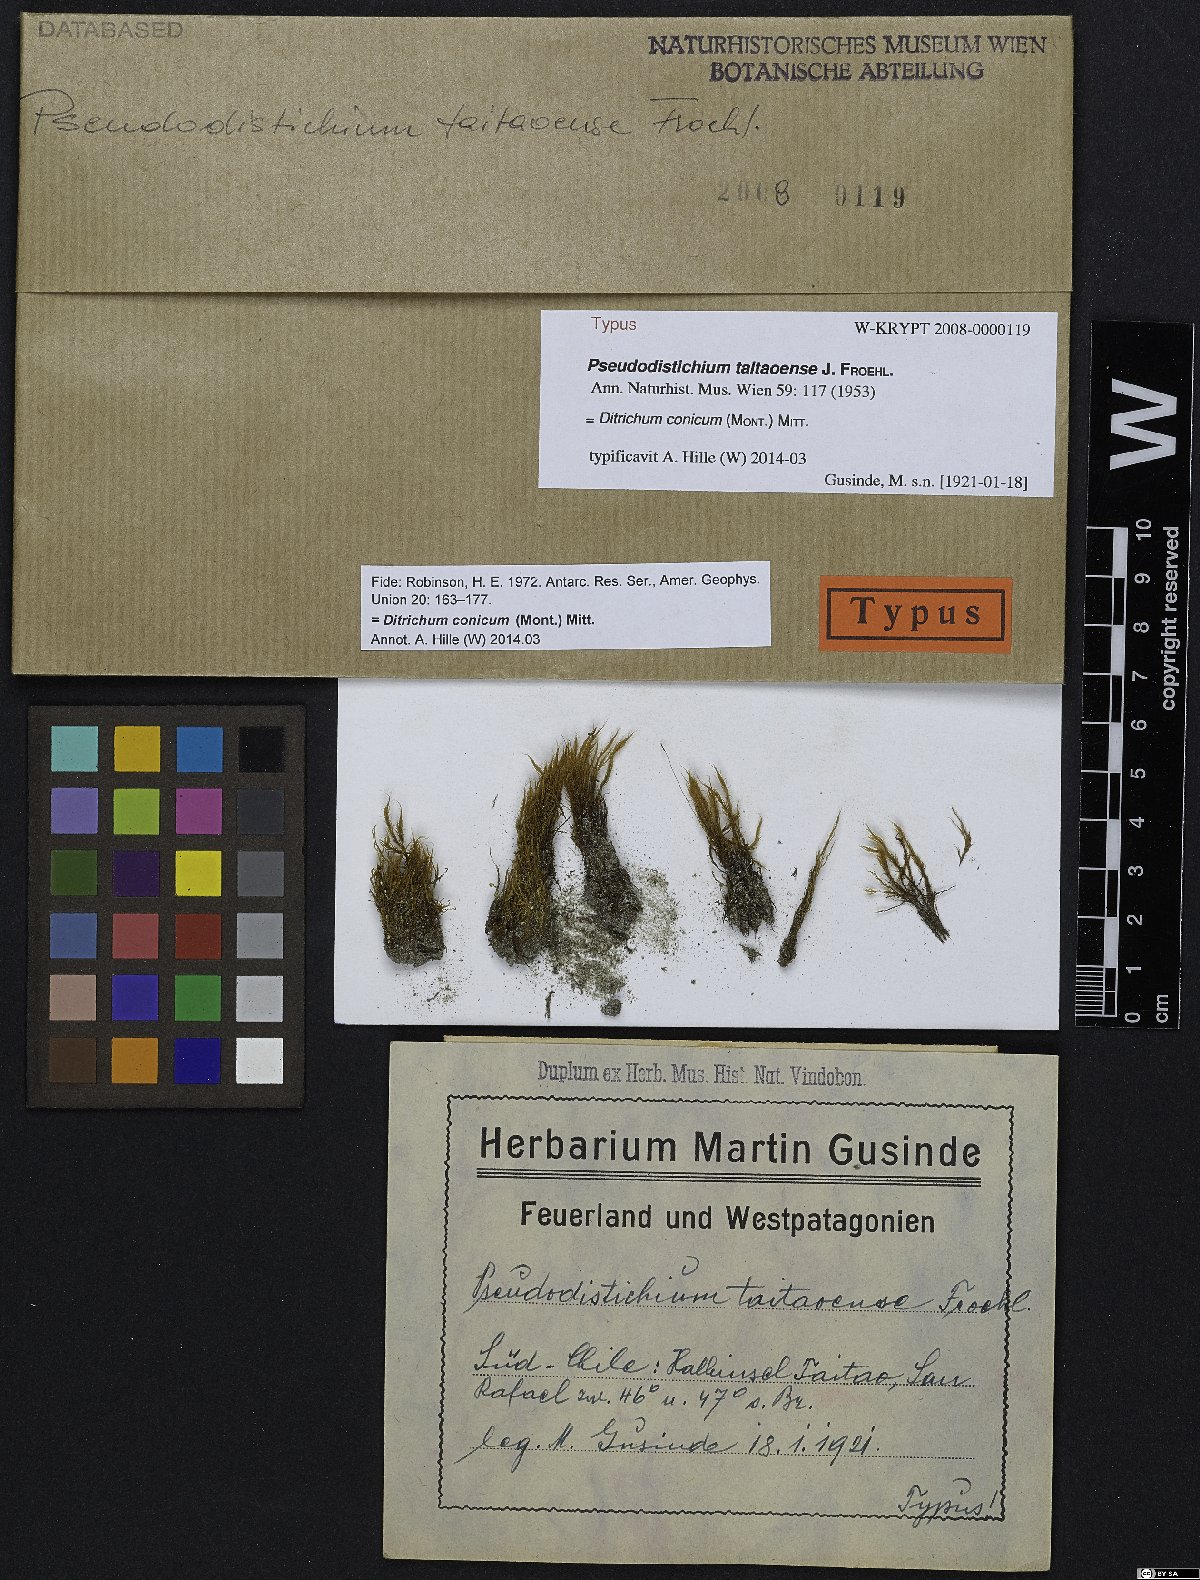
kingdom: Plantae
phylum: Bryophyta
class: Bryopsida
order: Dicranales
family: Ditrichaceae
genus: Ditrichum
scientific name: Ditrichum conicum
